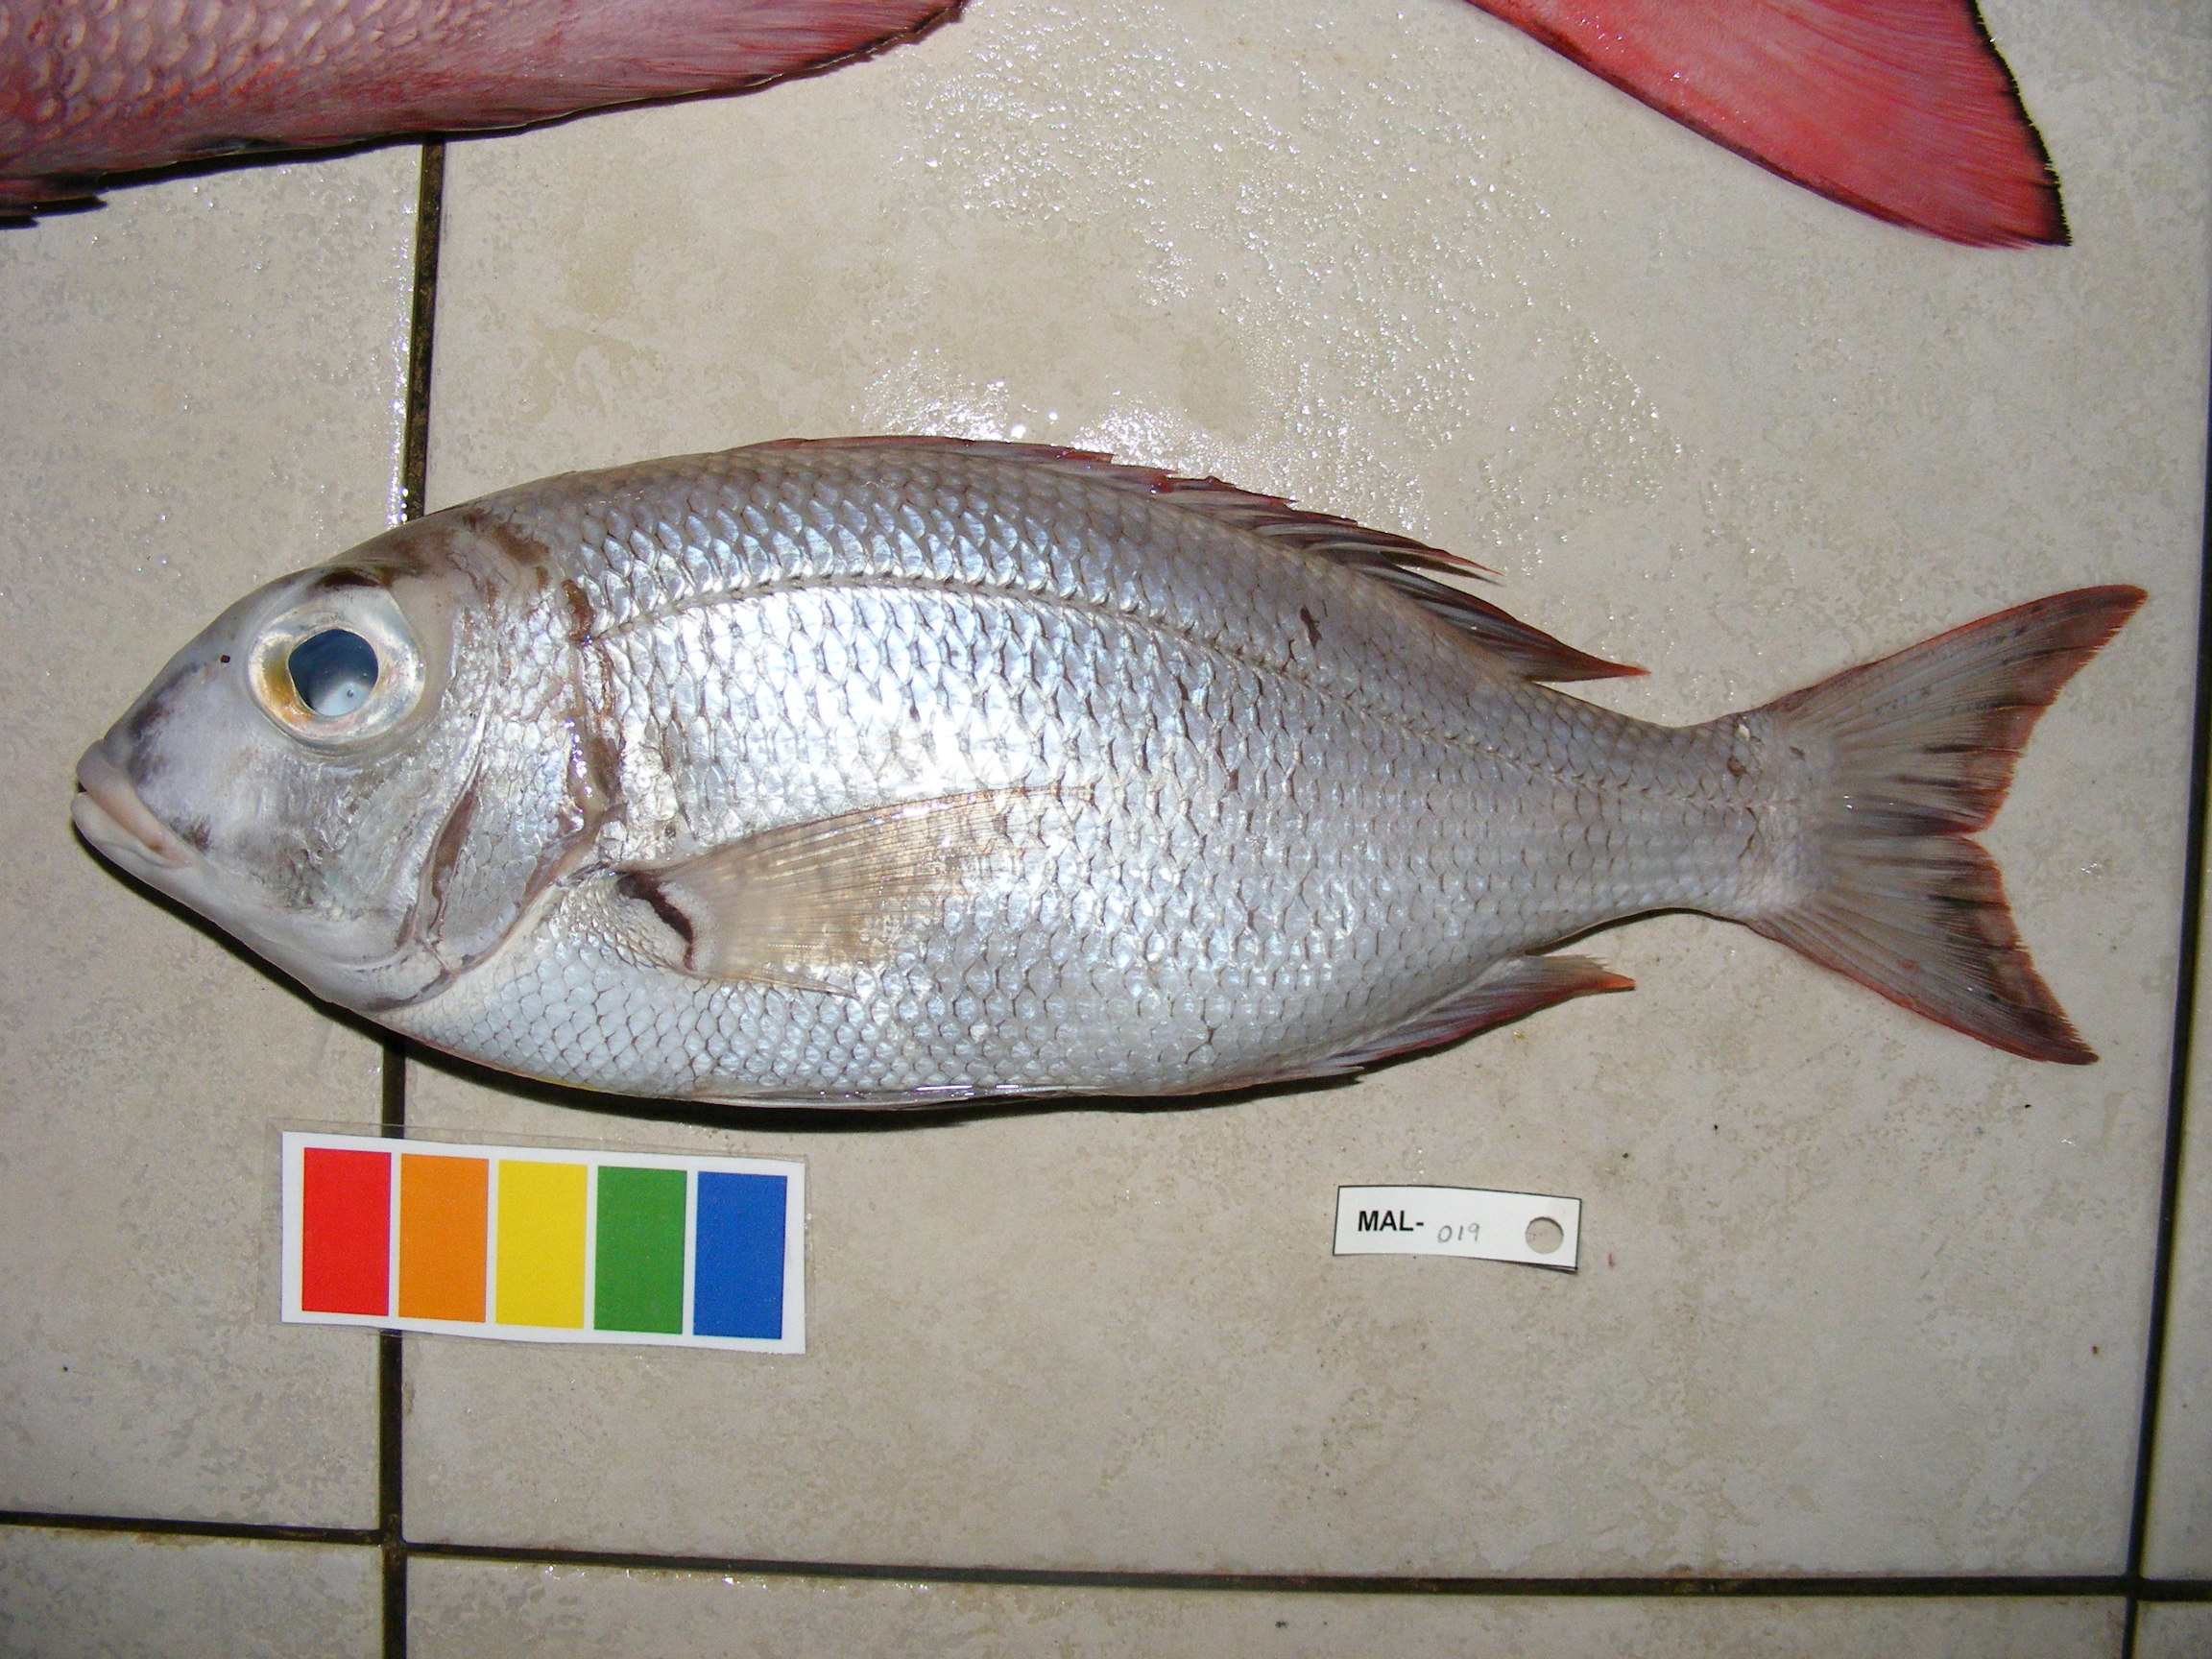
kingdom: Animalia
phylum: Chordata
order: Perciformes
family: Lethrinidae
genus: Gymnocranius
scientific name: Gymnocranius microdon
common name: Blue-spotted large-eye bream
